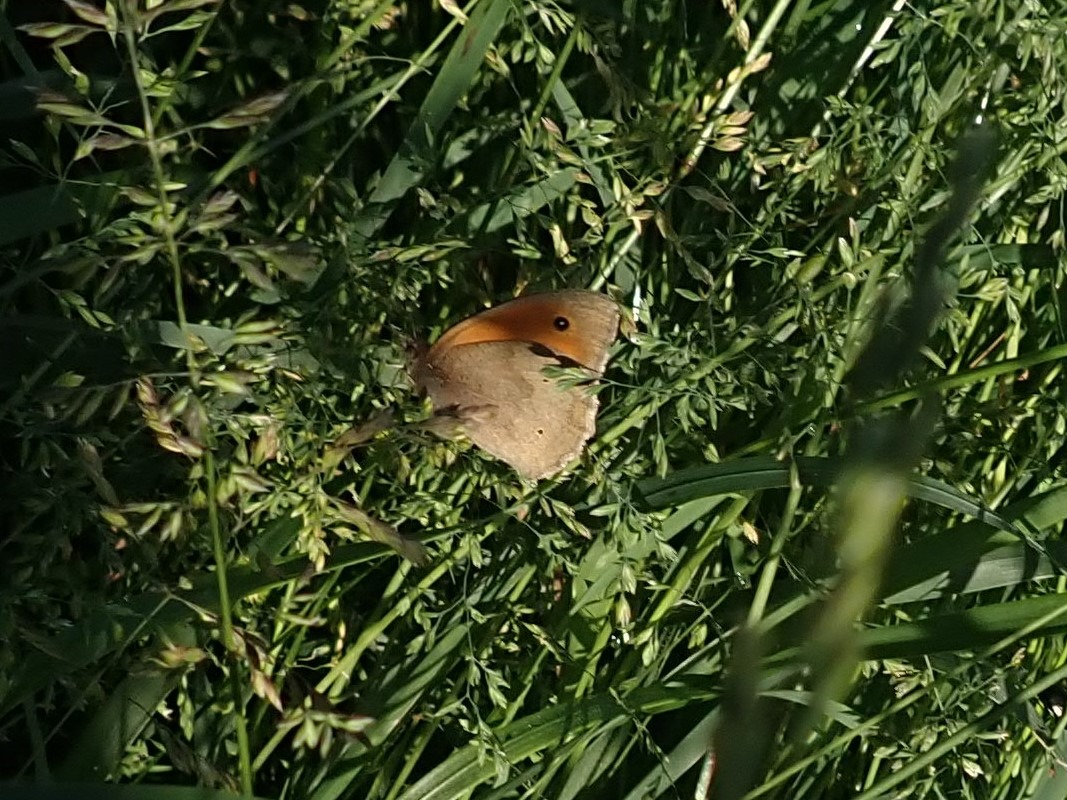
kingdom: Animalia
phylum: Arthropoda
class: Insecta
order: Lepidoptera
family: Nymphalidae
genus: Maniola
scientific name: Maniola jurtina
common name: Græsrandøje
